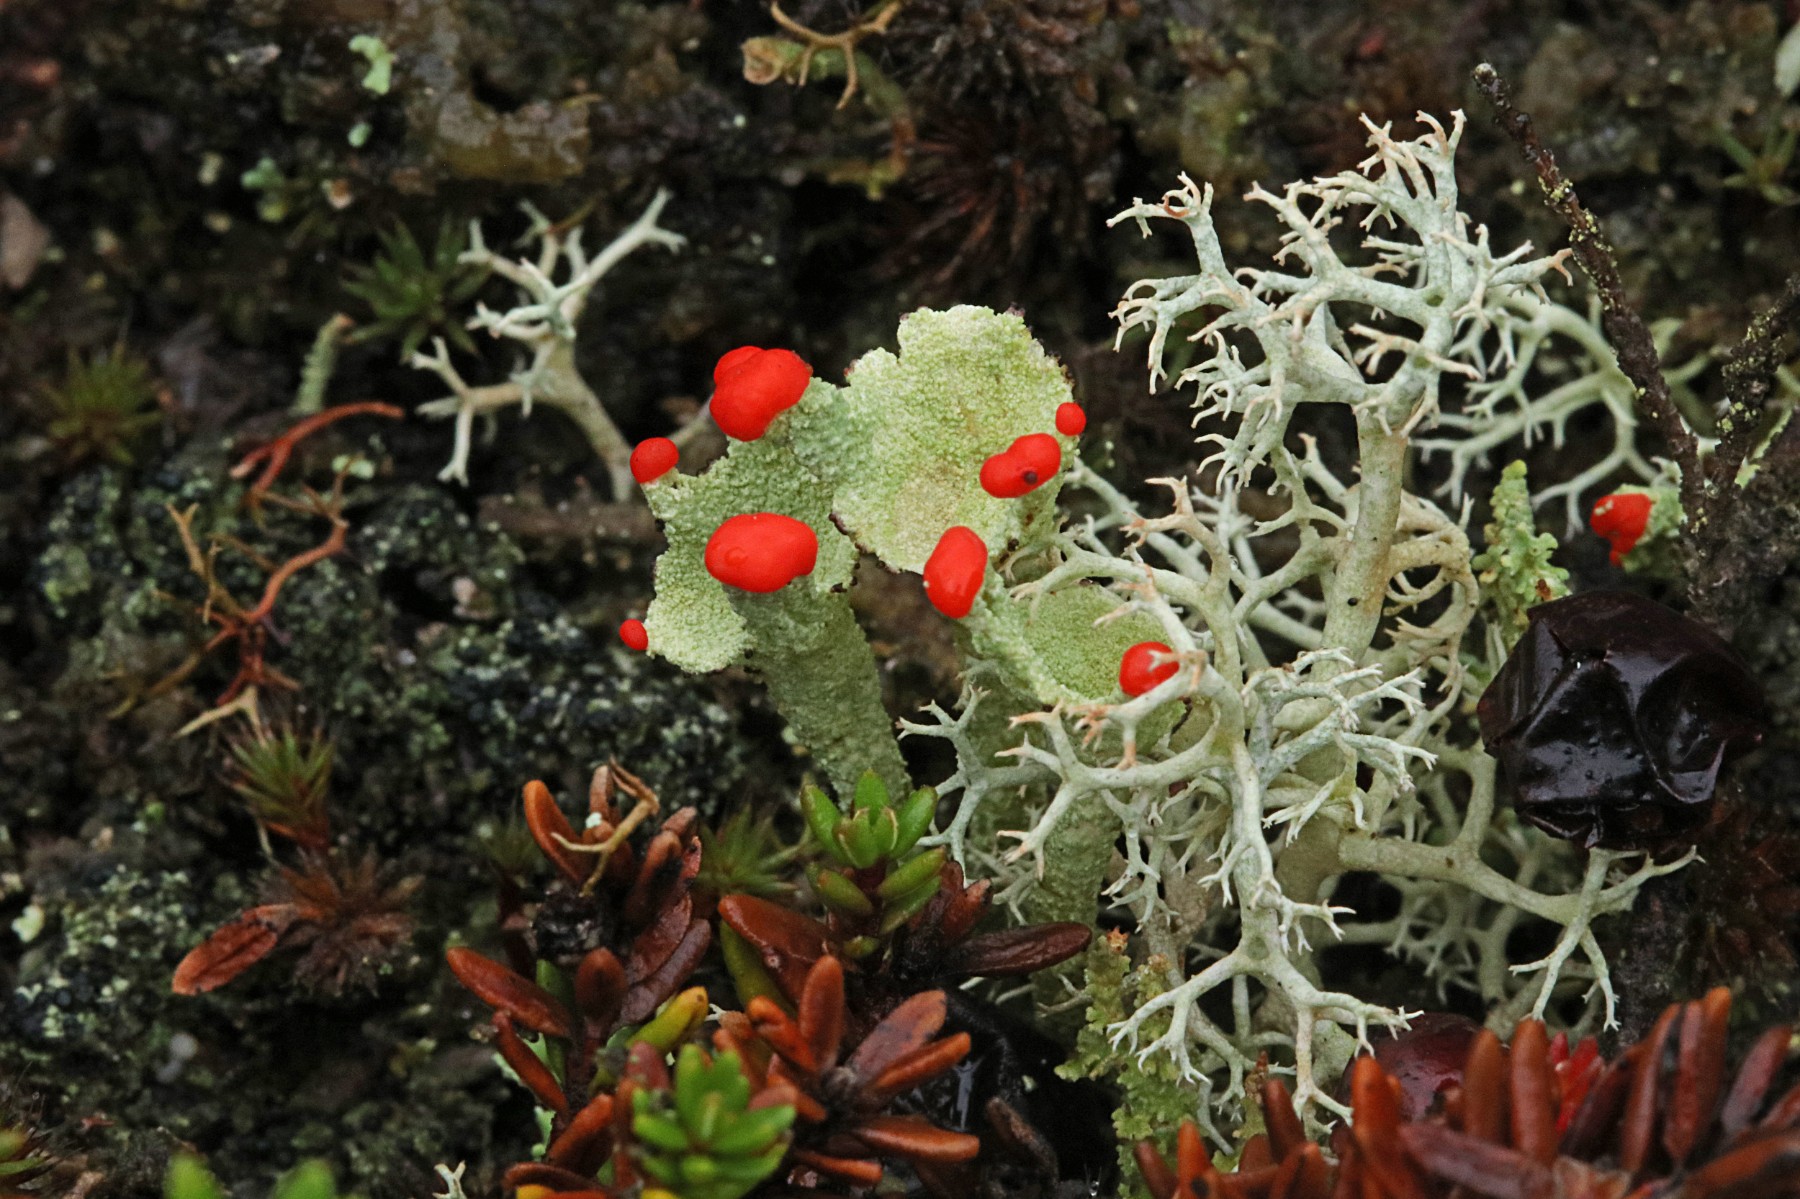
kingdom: Fungi
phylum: Ascomycota
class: Lecanoromycetes
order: Lecanorales
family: Cladoniaceae
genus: Cladonia
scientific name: Cladonia diversa
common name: rød bægerlav
